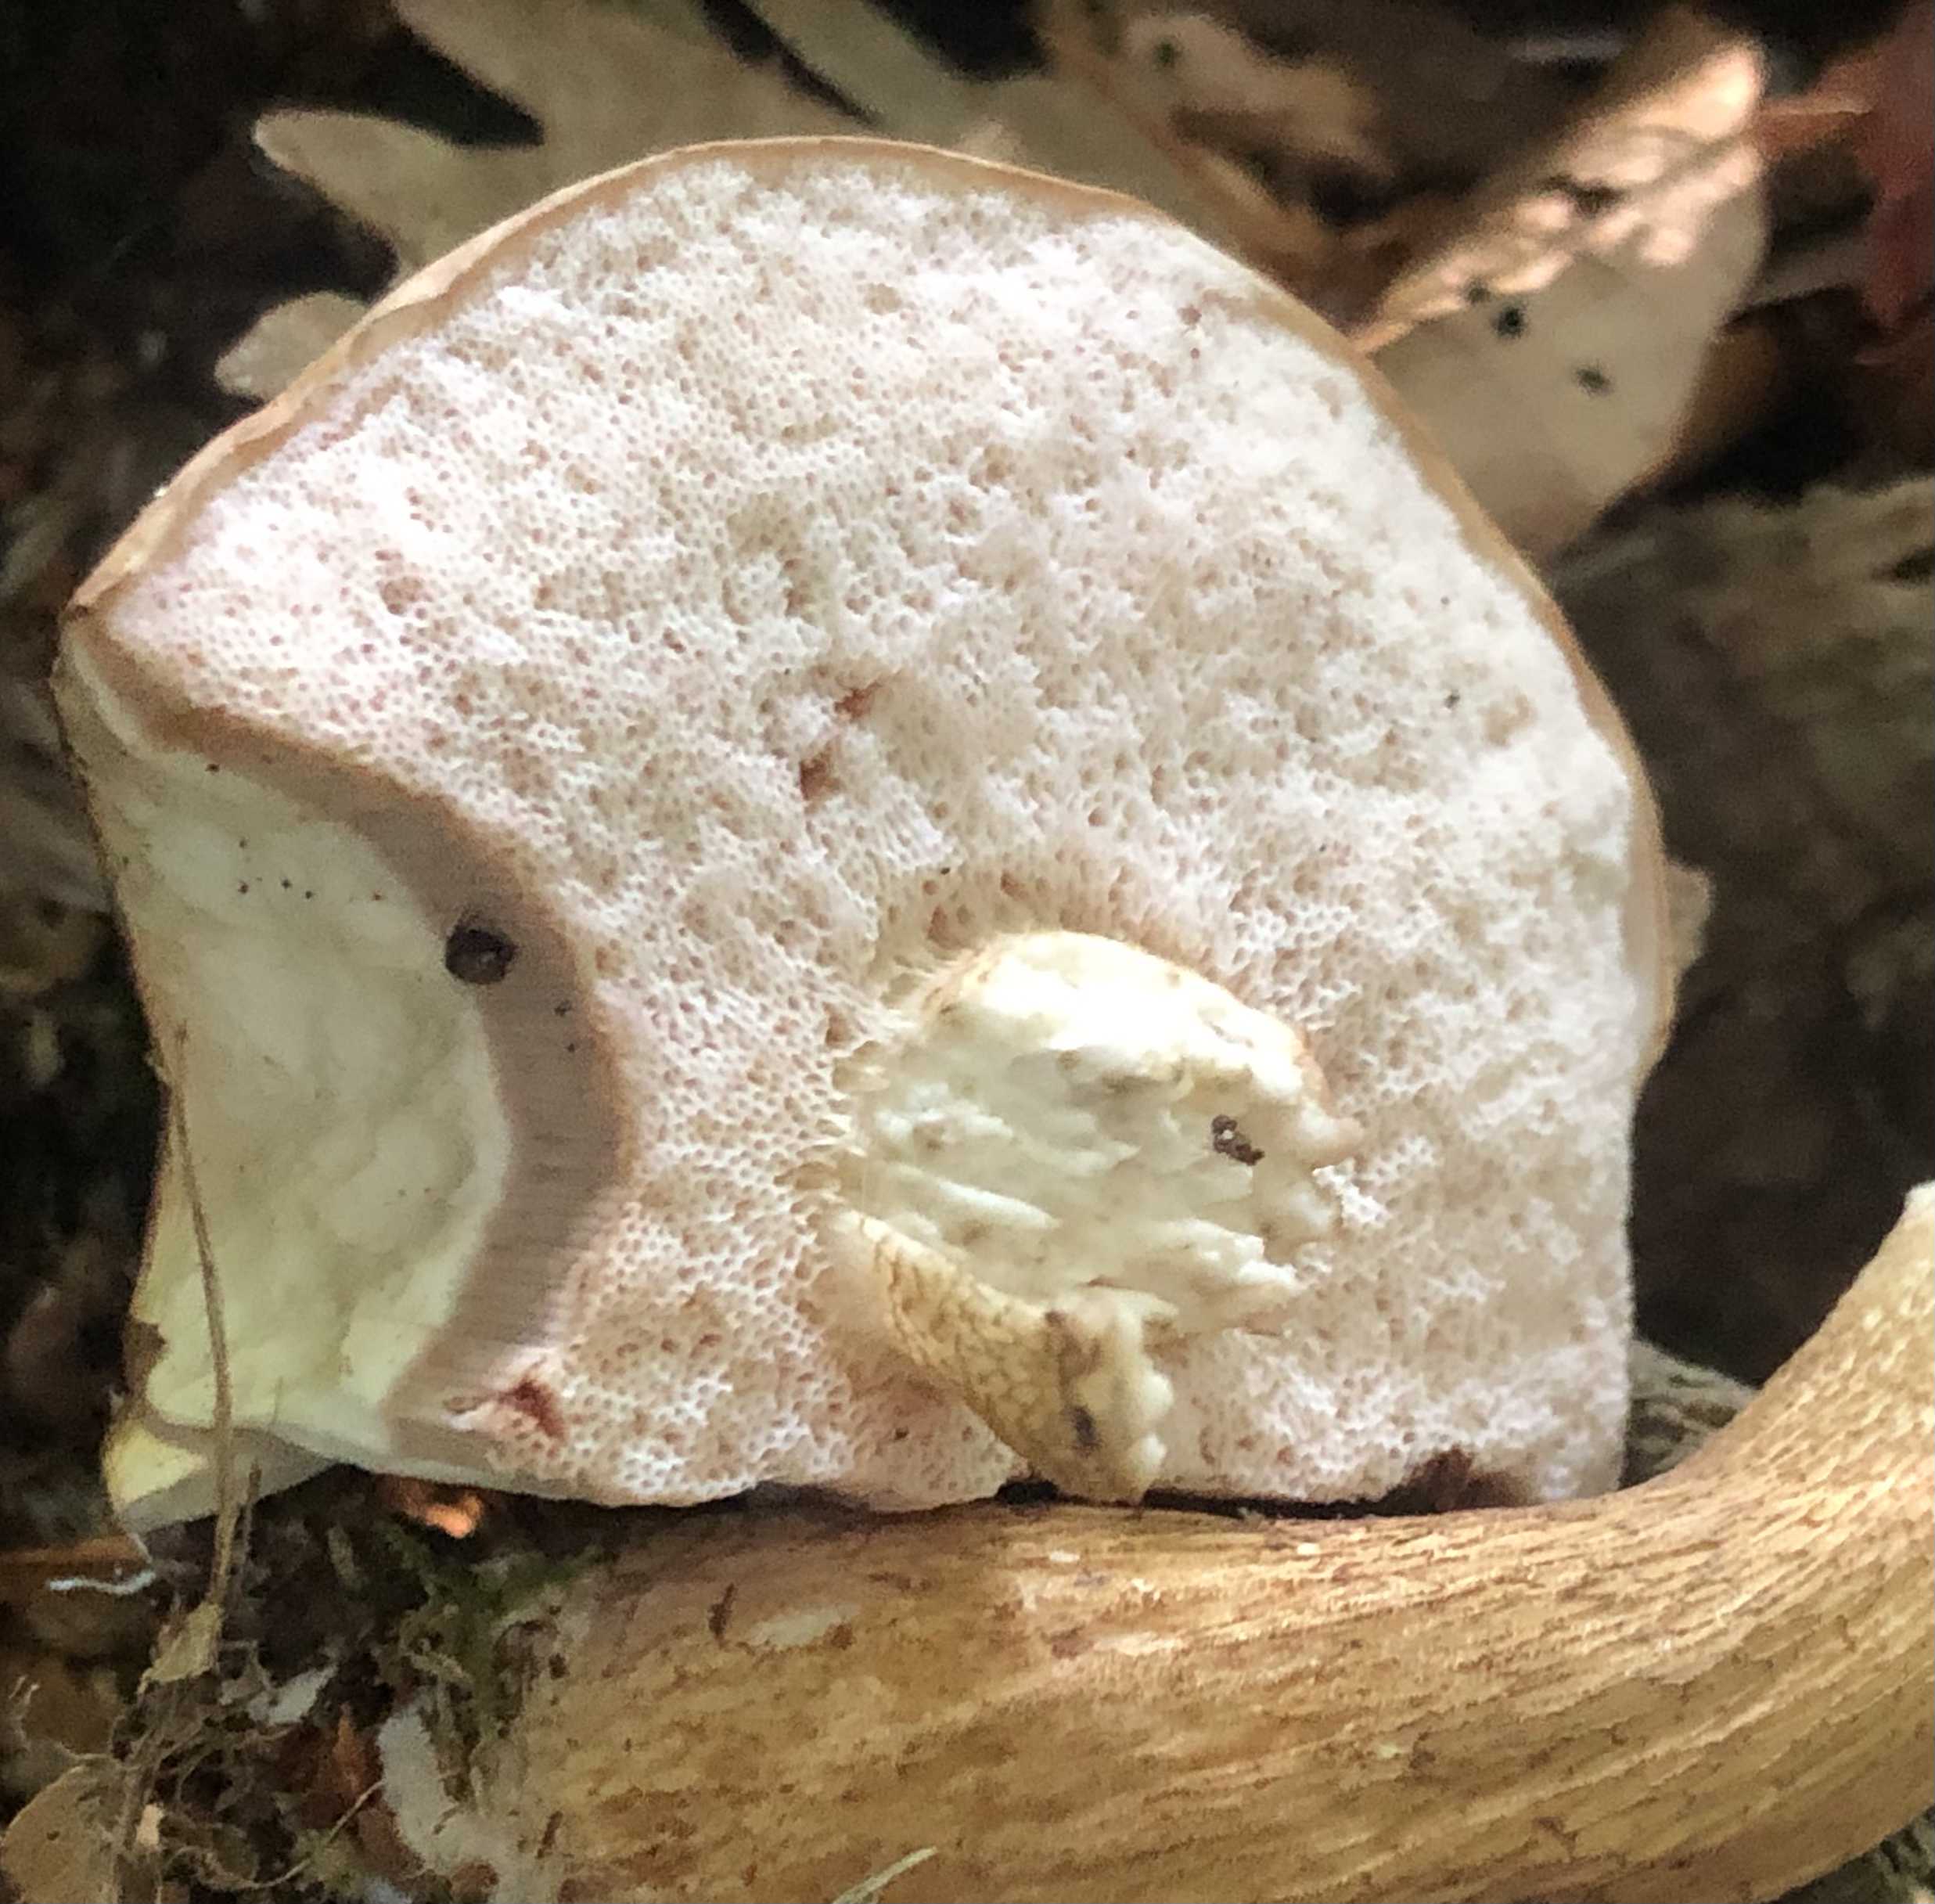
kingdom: Fungi
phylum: Basidiomycota
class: Agaricomycetes
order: Boletales
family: Boletaceae
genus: Tylopilus
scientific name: Tylopilus felleus
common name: galderørhat
